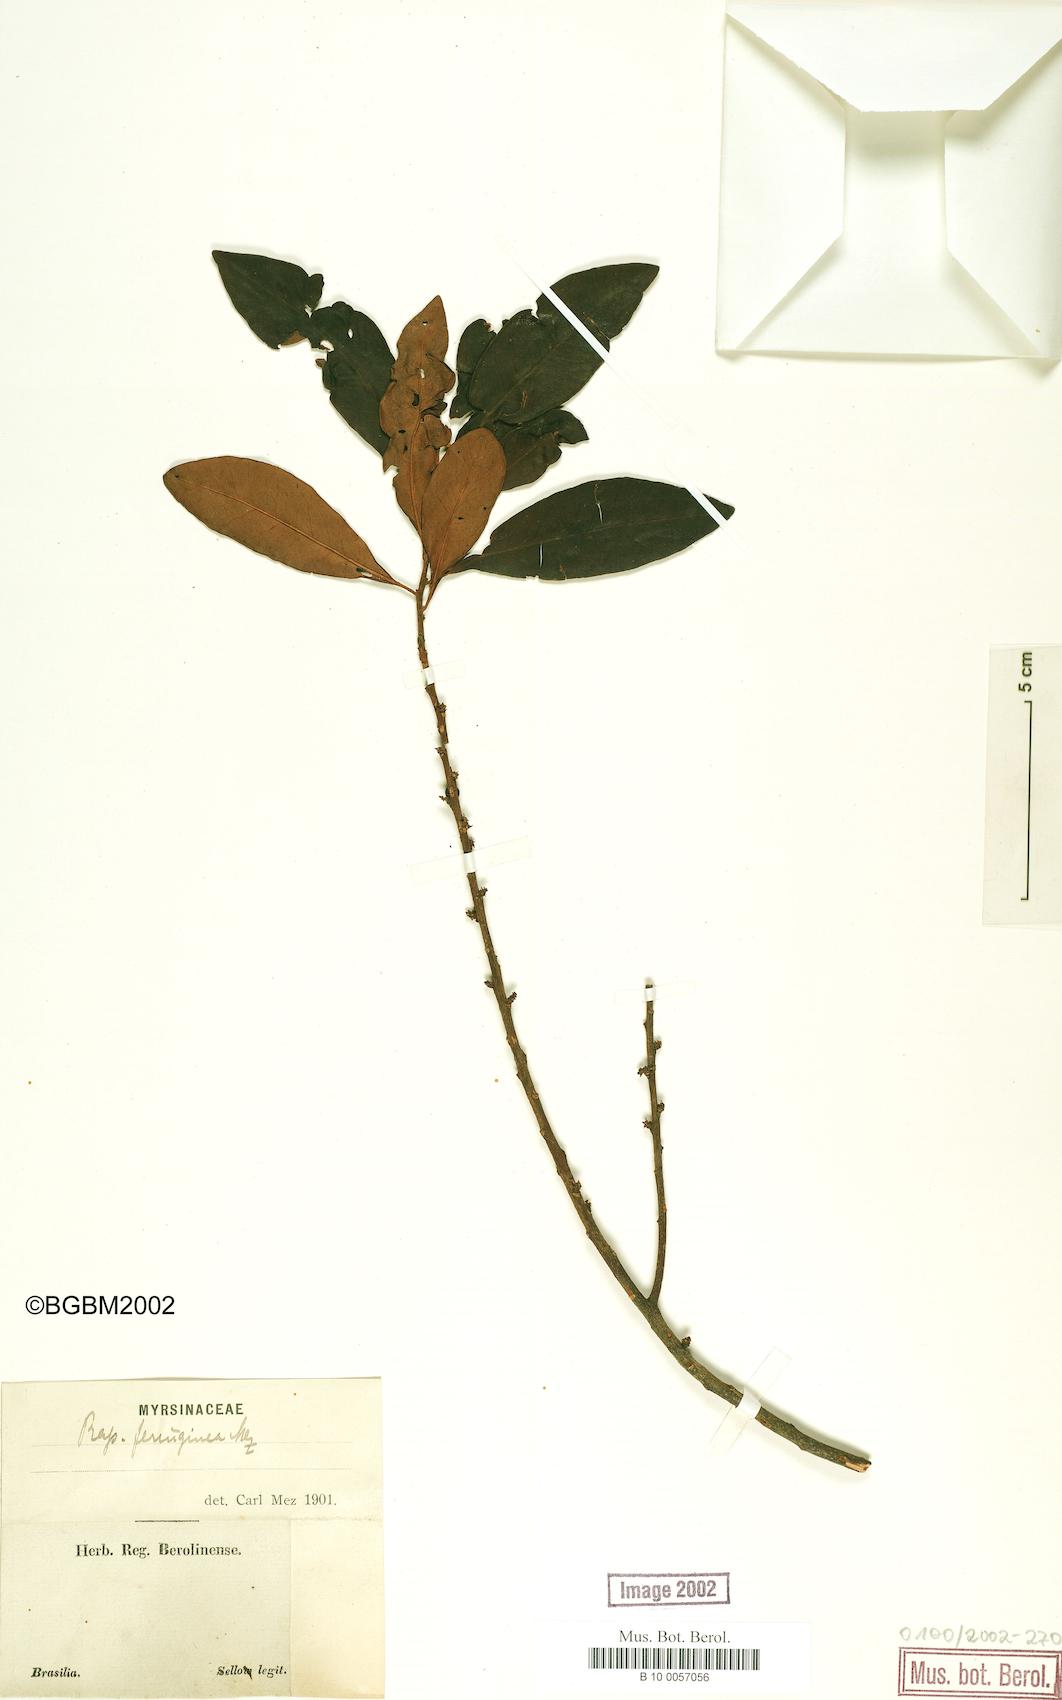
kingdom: Plantae
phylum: Tracheophyta
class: Magnoliopsida
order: Ericales
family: Primulaceae
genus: Myrsine
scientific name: Myrsine coriacea
